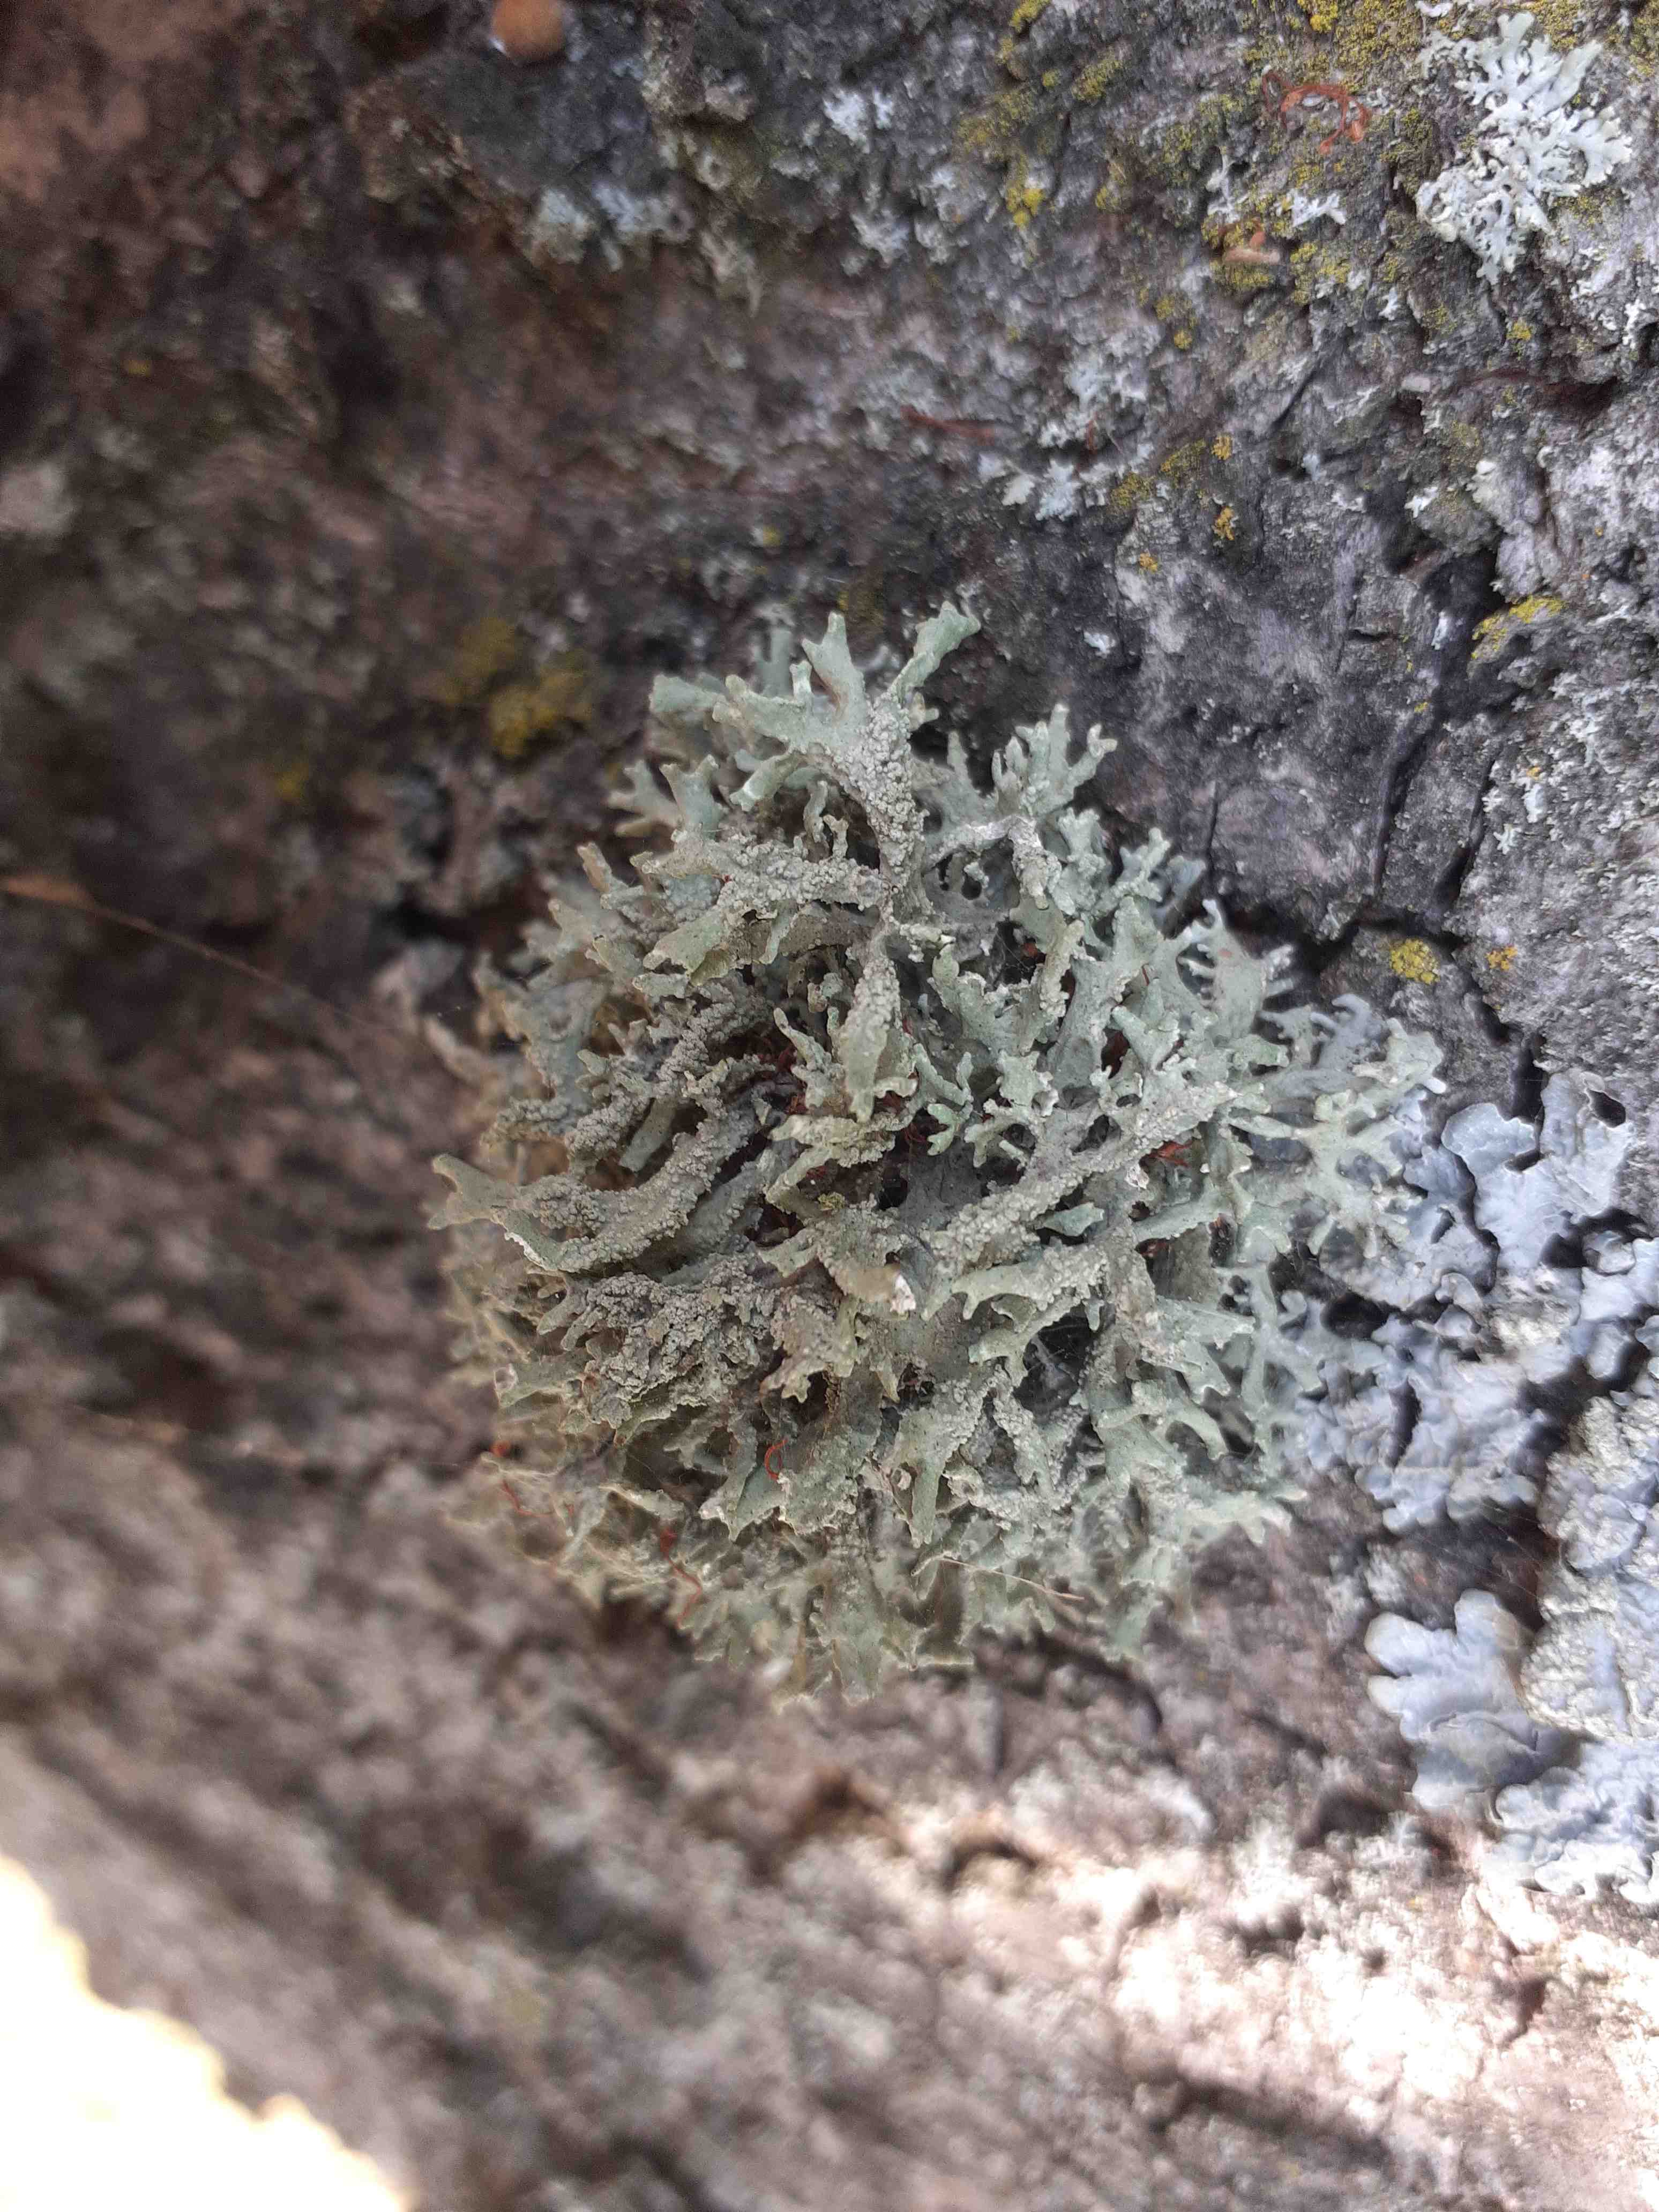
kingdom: Fungi
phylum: Ascomycota
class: Lecanoromycetes
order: Lecanorales
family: Parmeliaceae
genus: Evernia
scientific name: Evernia prunastri
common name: almindelig slåenlav
